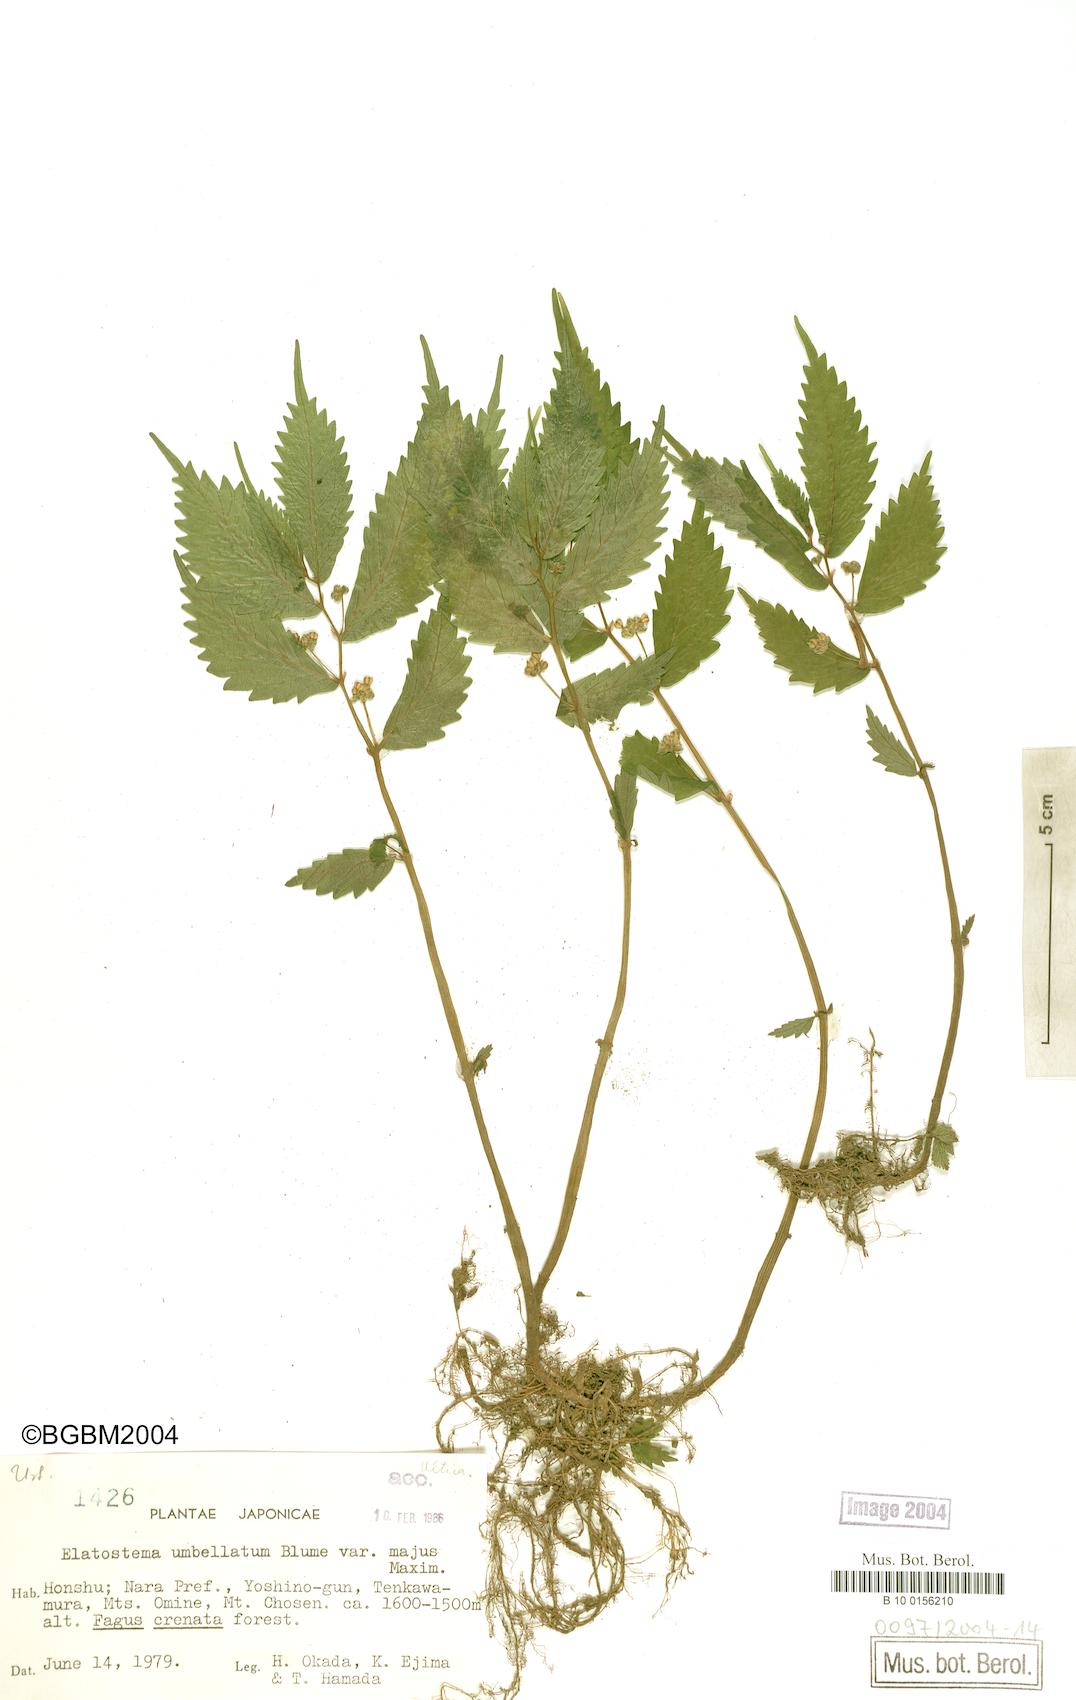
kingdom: Plantae
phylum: Tracheophyta
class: Magnoliopsida
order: Rosales
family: Urticaceae
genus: Elatostema
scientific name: Elatostema involucratum
